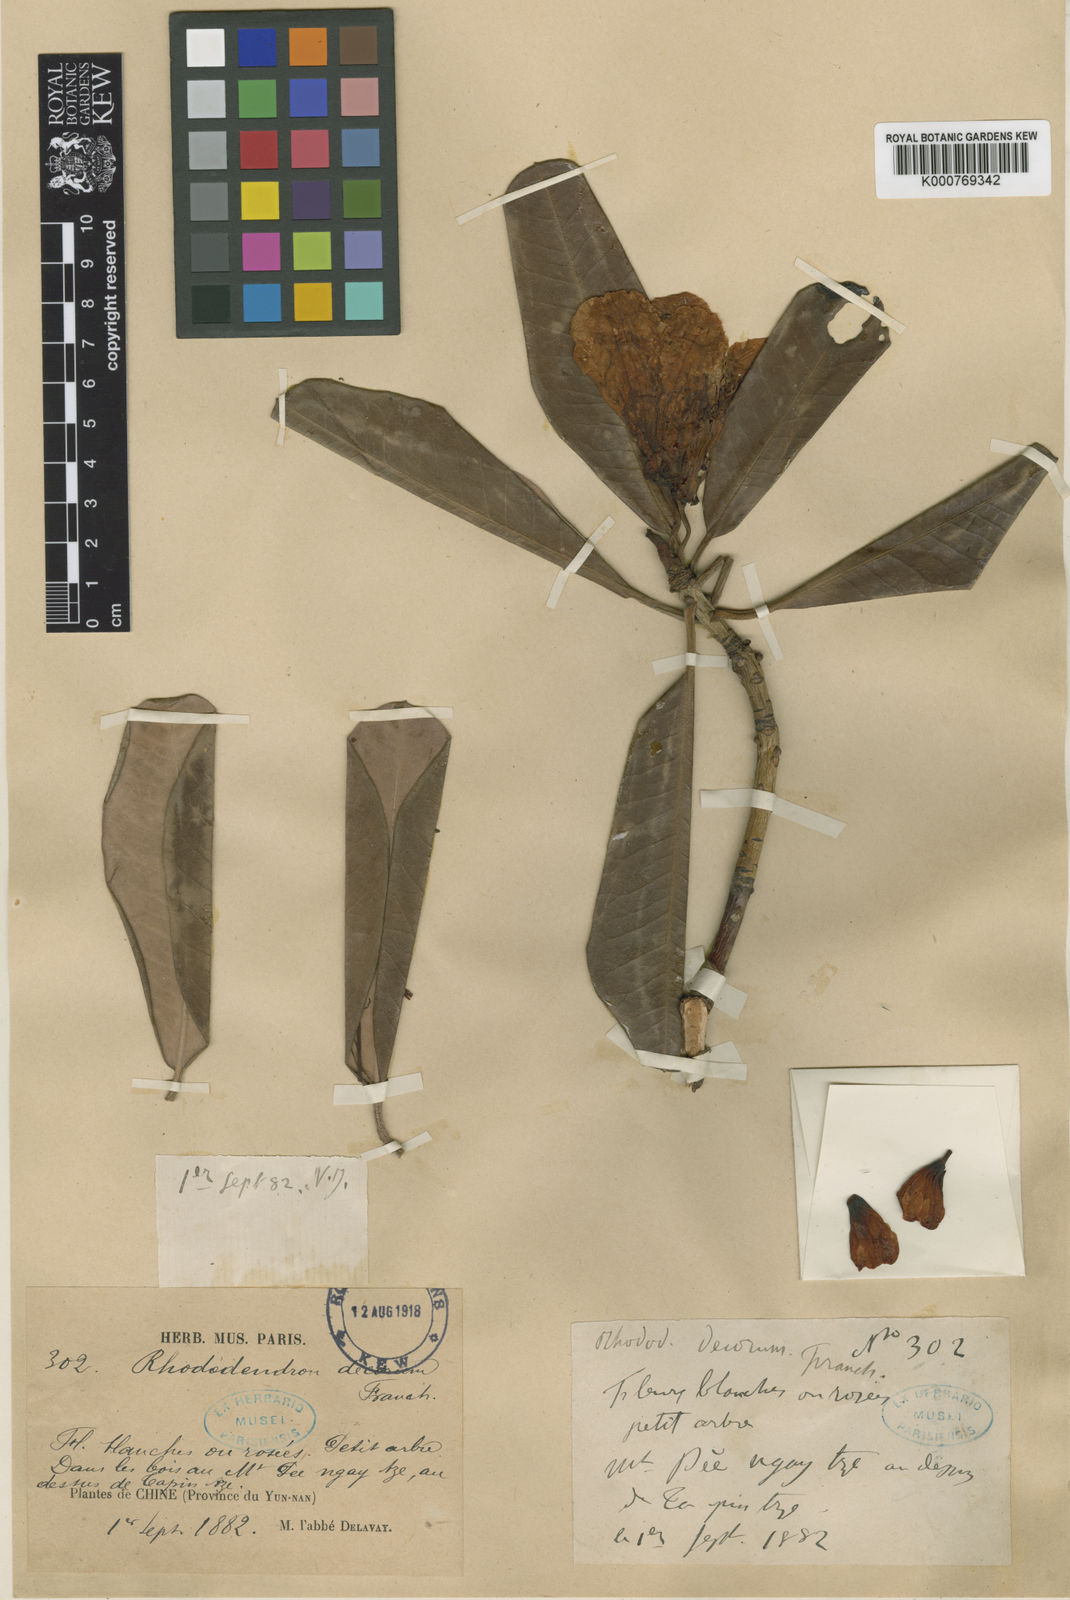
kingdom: Plantae
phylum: Tracheophyta
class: Magnoliopsida
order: Ericales
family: Ericaceae
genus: Rhododendron
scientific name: Rhododendron decorum
